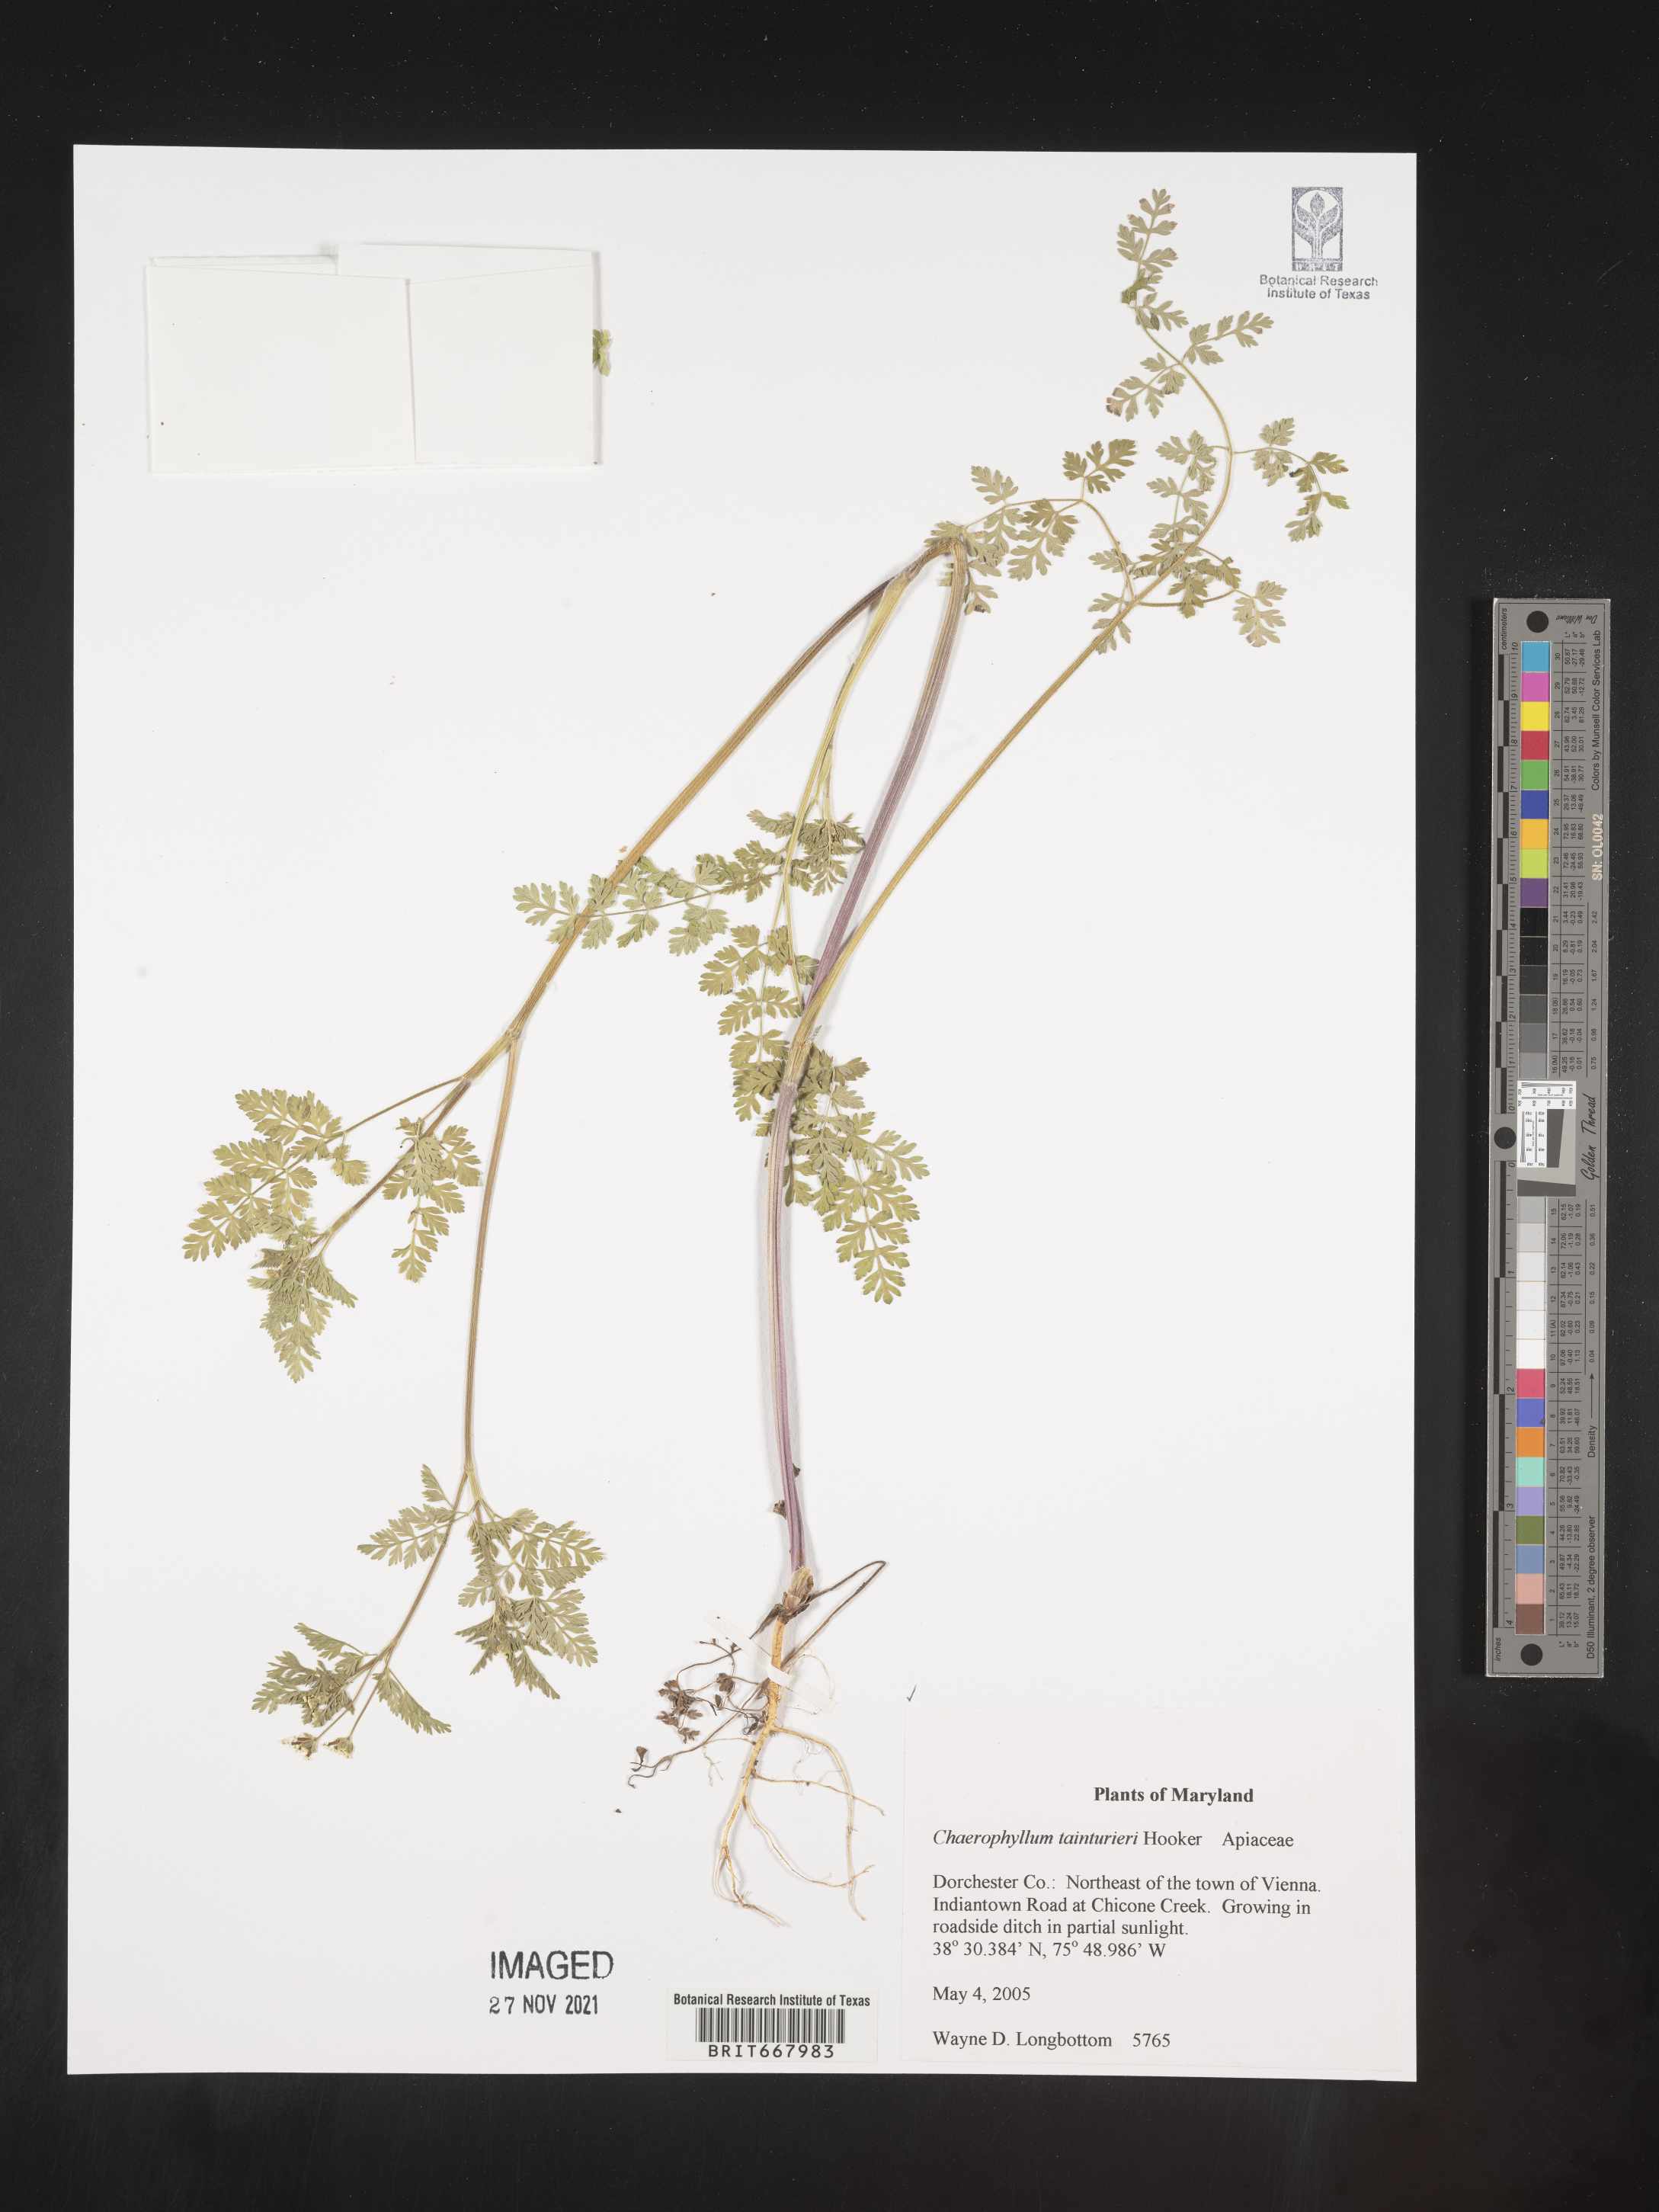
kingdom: Plantae
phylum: Tracheophyta
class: Magnoliopsida
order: Apiales
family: Apiaceae
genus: Chaerophyllum
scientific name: Chaerophyllum tainturieri
